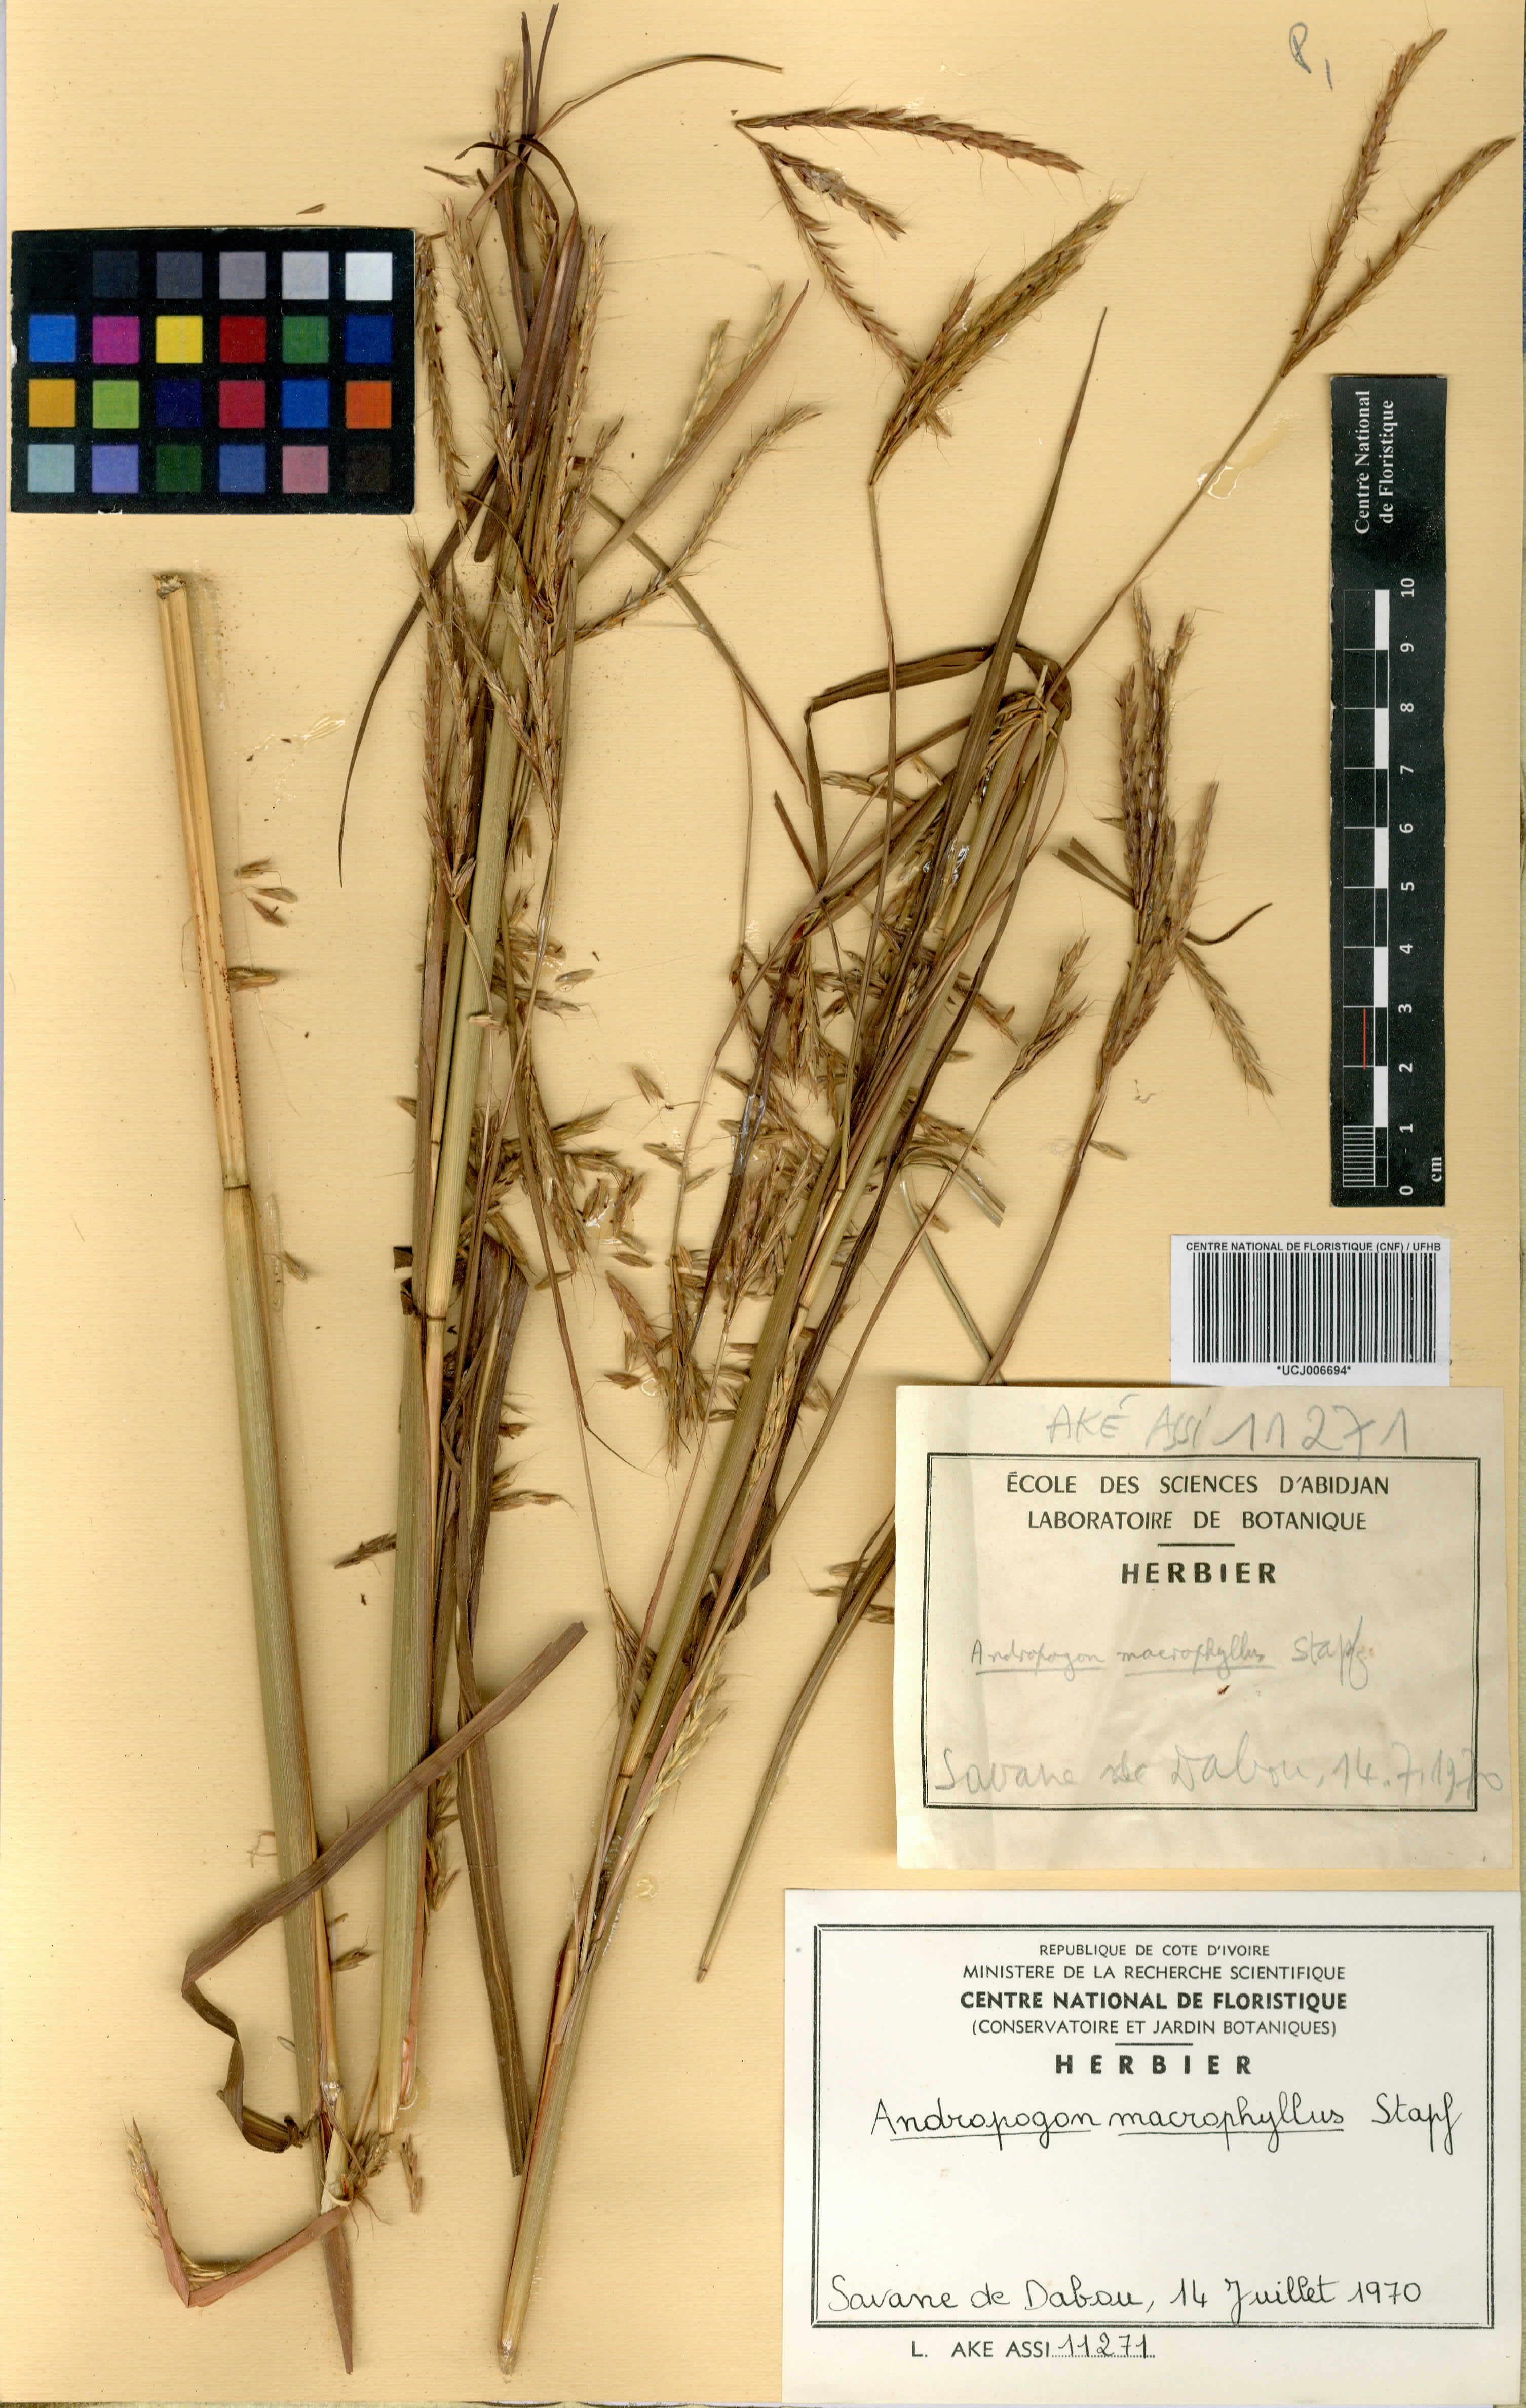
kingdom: Plantae
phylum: Tracheophyta
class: Liliopsida
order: Poales
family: Poaceae
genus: Andropogon
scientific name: Andropogon macrophyllus
